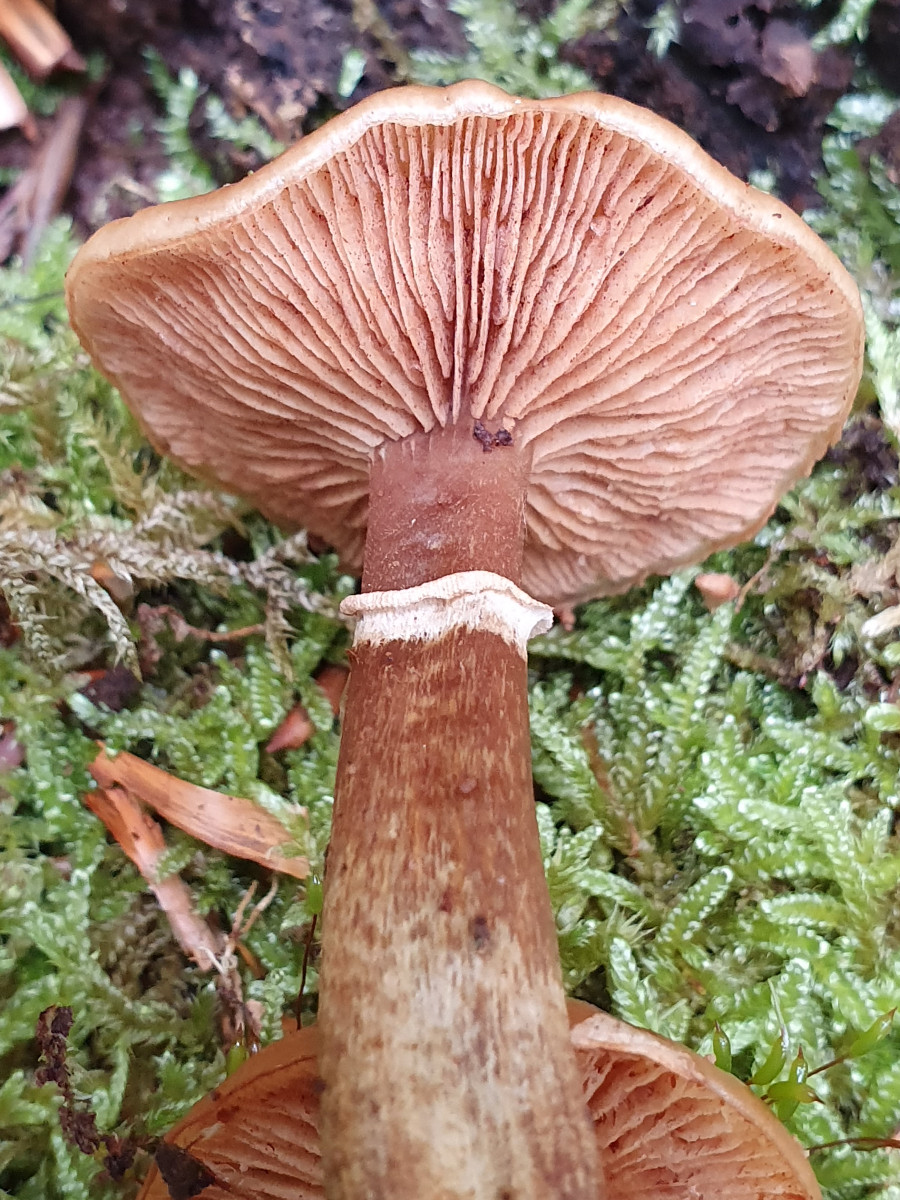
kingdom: Fungi
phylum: Basidiomycota
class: Agaricomycetes
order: Agaricales
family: Hymenogastraceae
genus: Galerina
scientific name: Galerina marginata
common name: randbæltet hjelmhat
